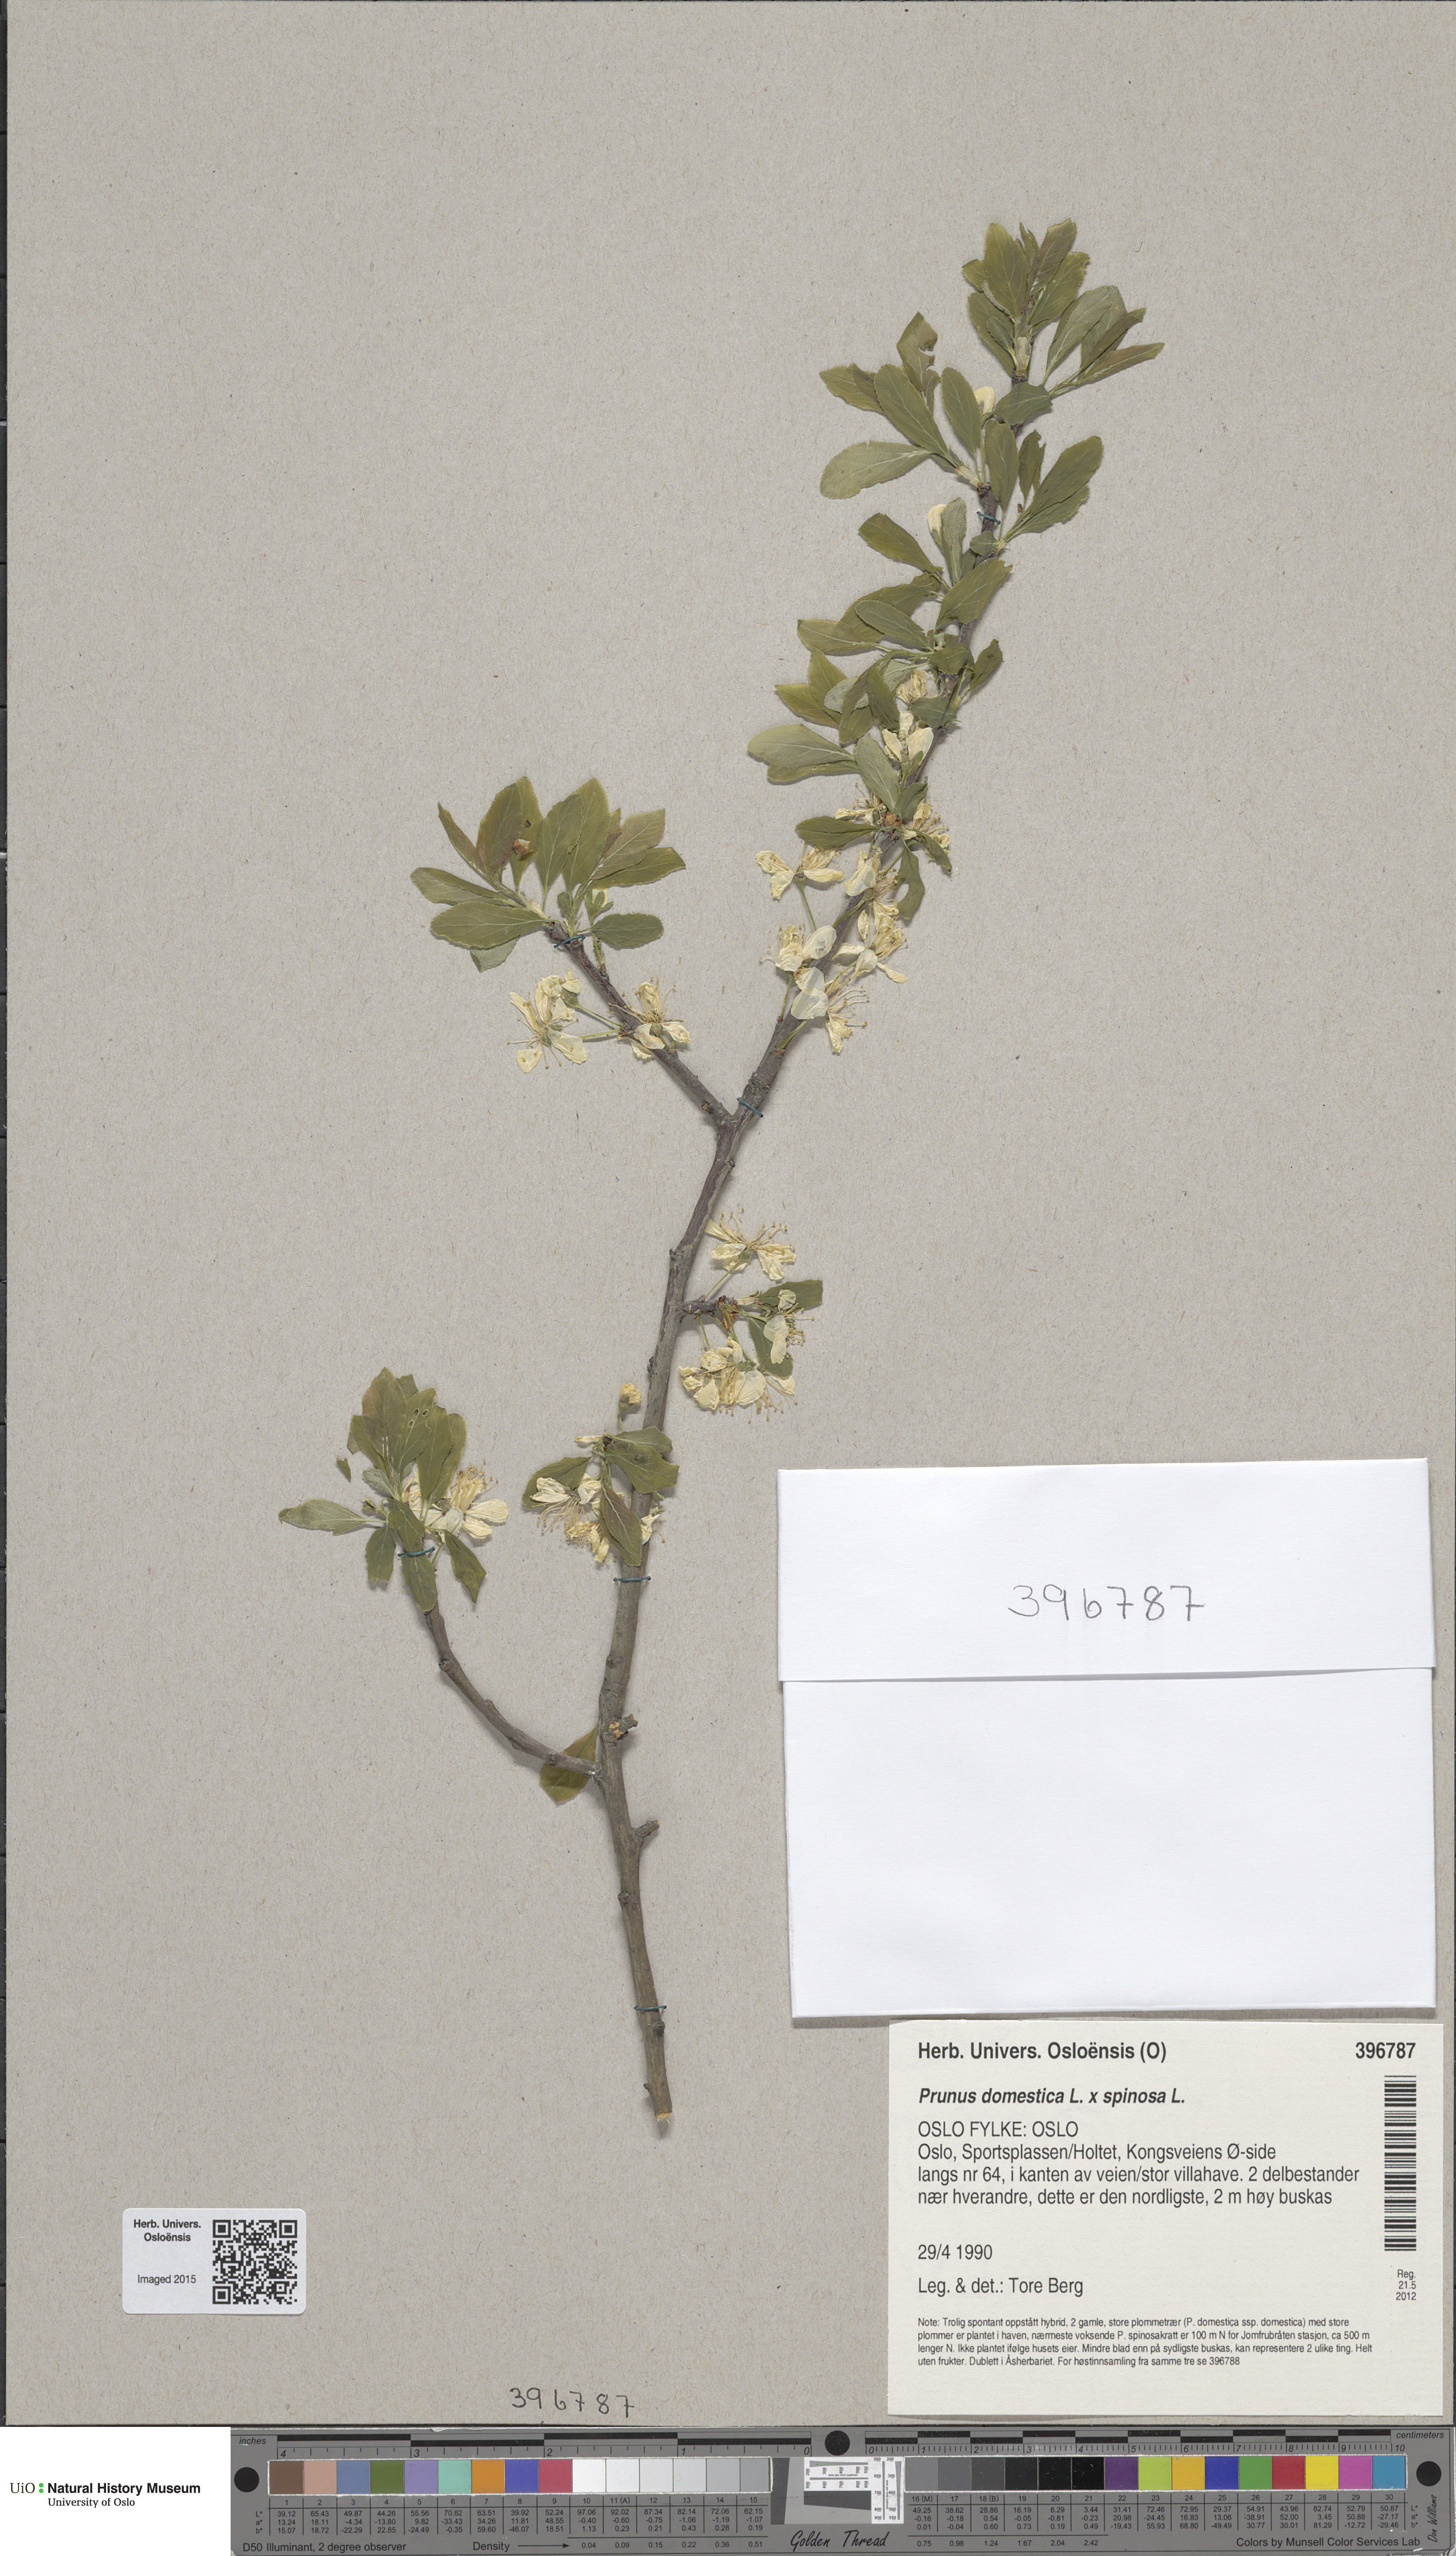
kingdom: Plantae
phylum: Tracheophyta
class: Magnoliopsida
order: Rosales
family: Rosaceae
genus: Prunus
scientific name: Prunus
